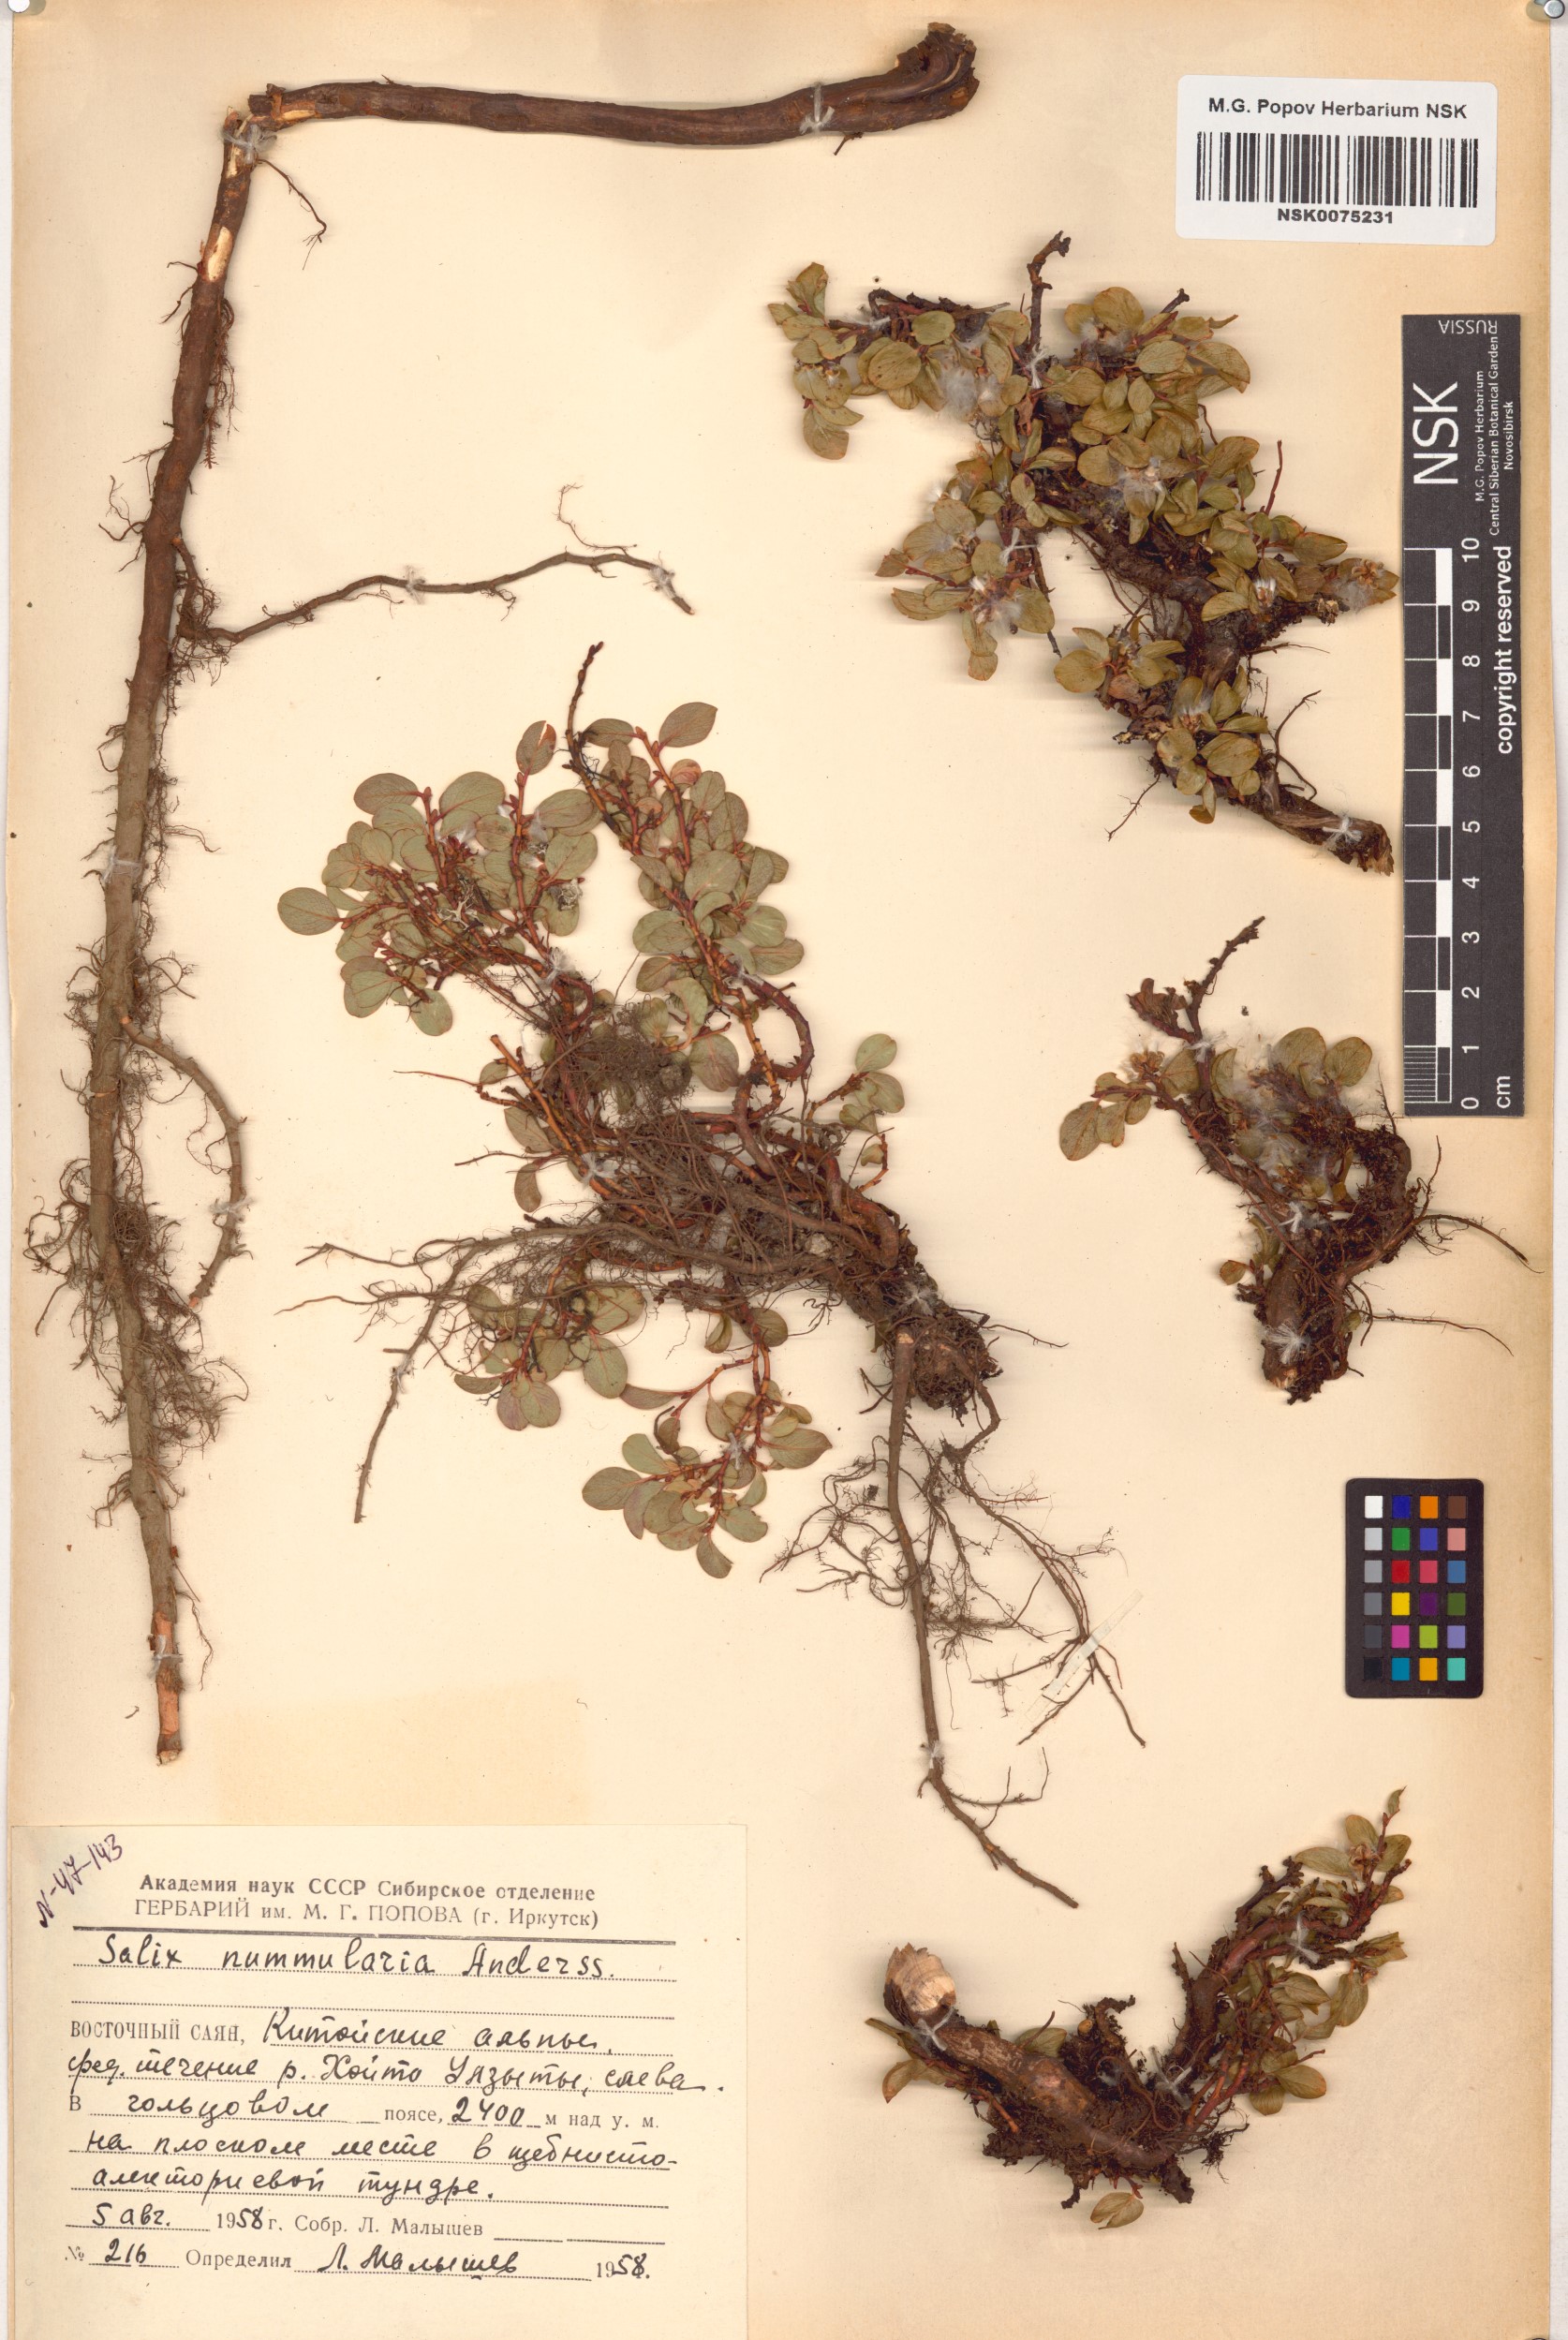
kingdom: Plantae
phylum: Tracheophyta
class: Magnoliopsida
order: Malpighiales
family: Salicaceae
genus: Salix
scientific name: Salix nummularia
